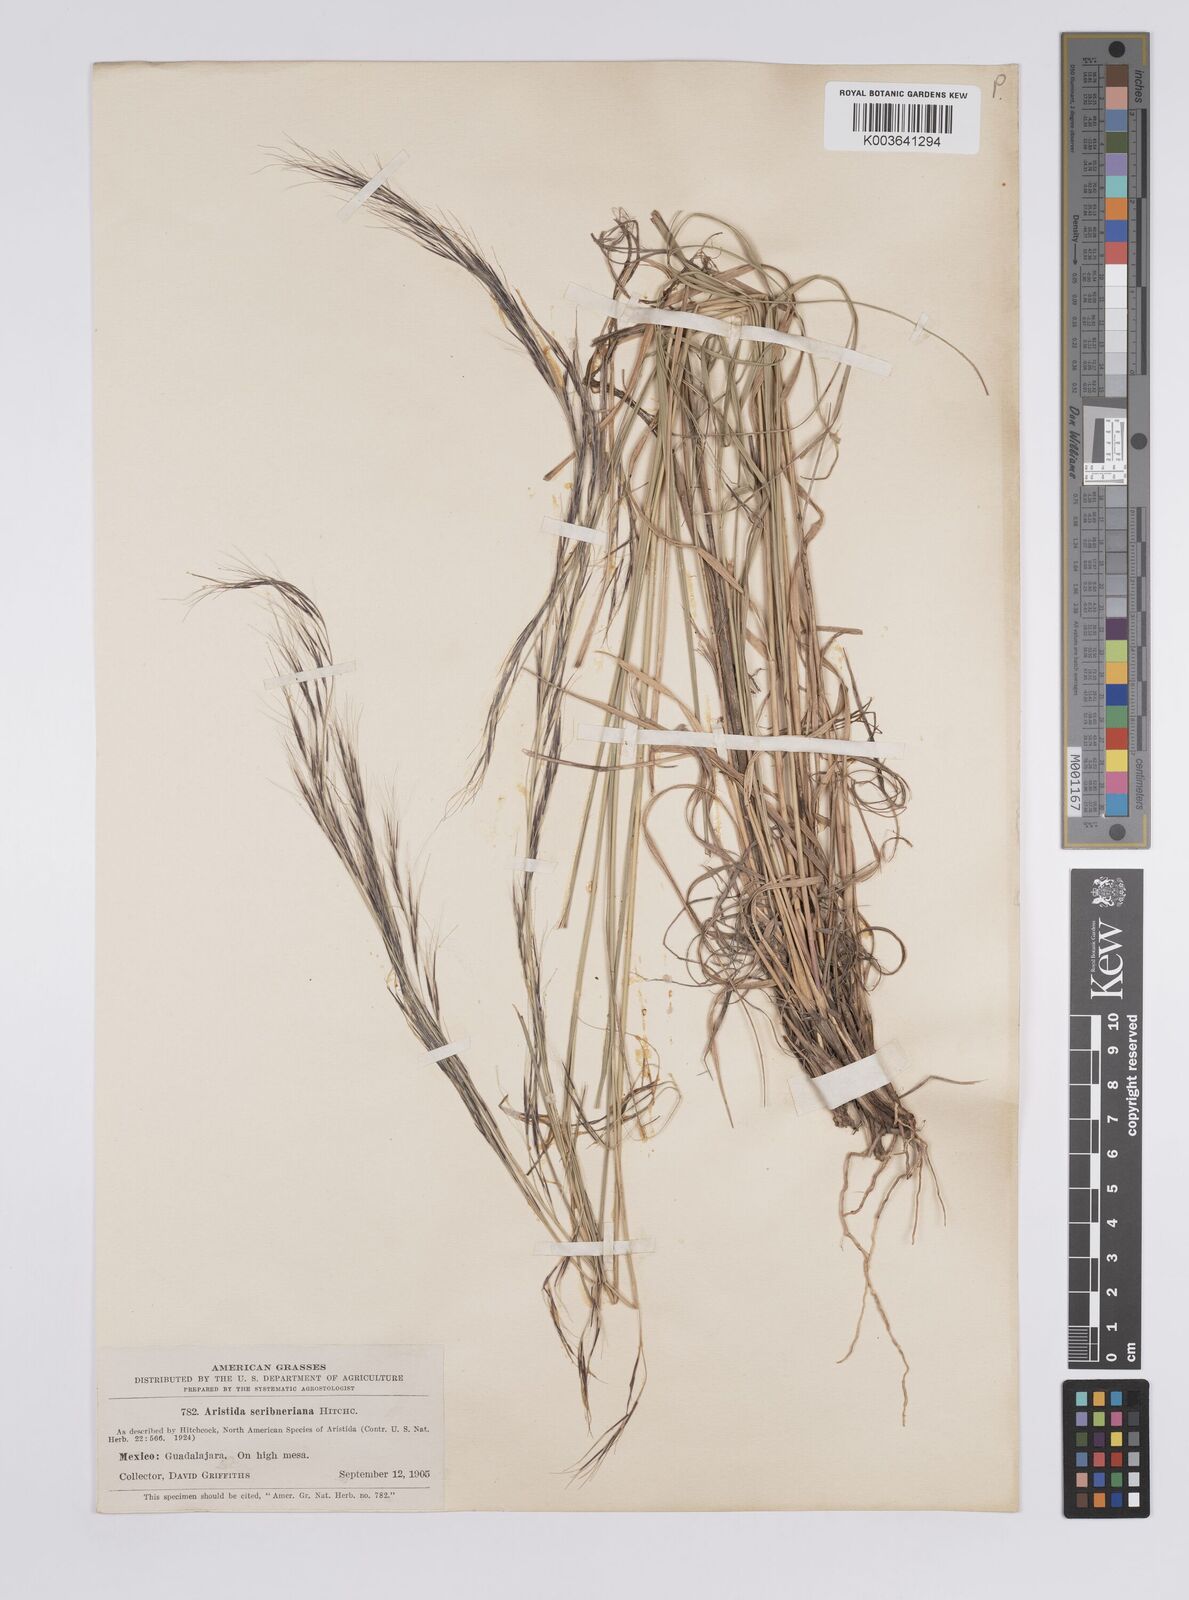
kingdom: Plantae
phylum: Tracheophyta
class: Liliopsida
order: Poales
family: Poaceae
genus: Aristida
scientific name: Aristida scribneriana
